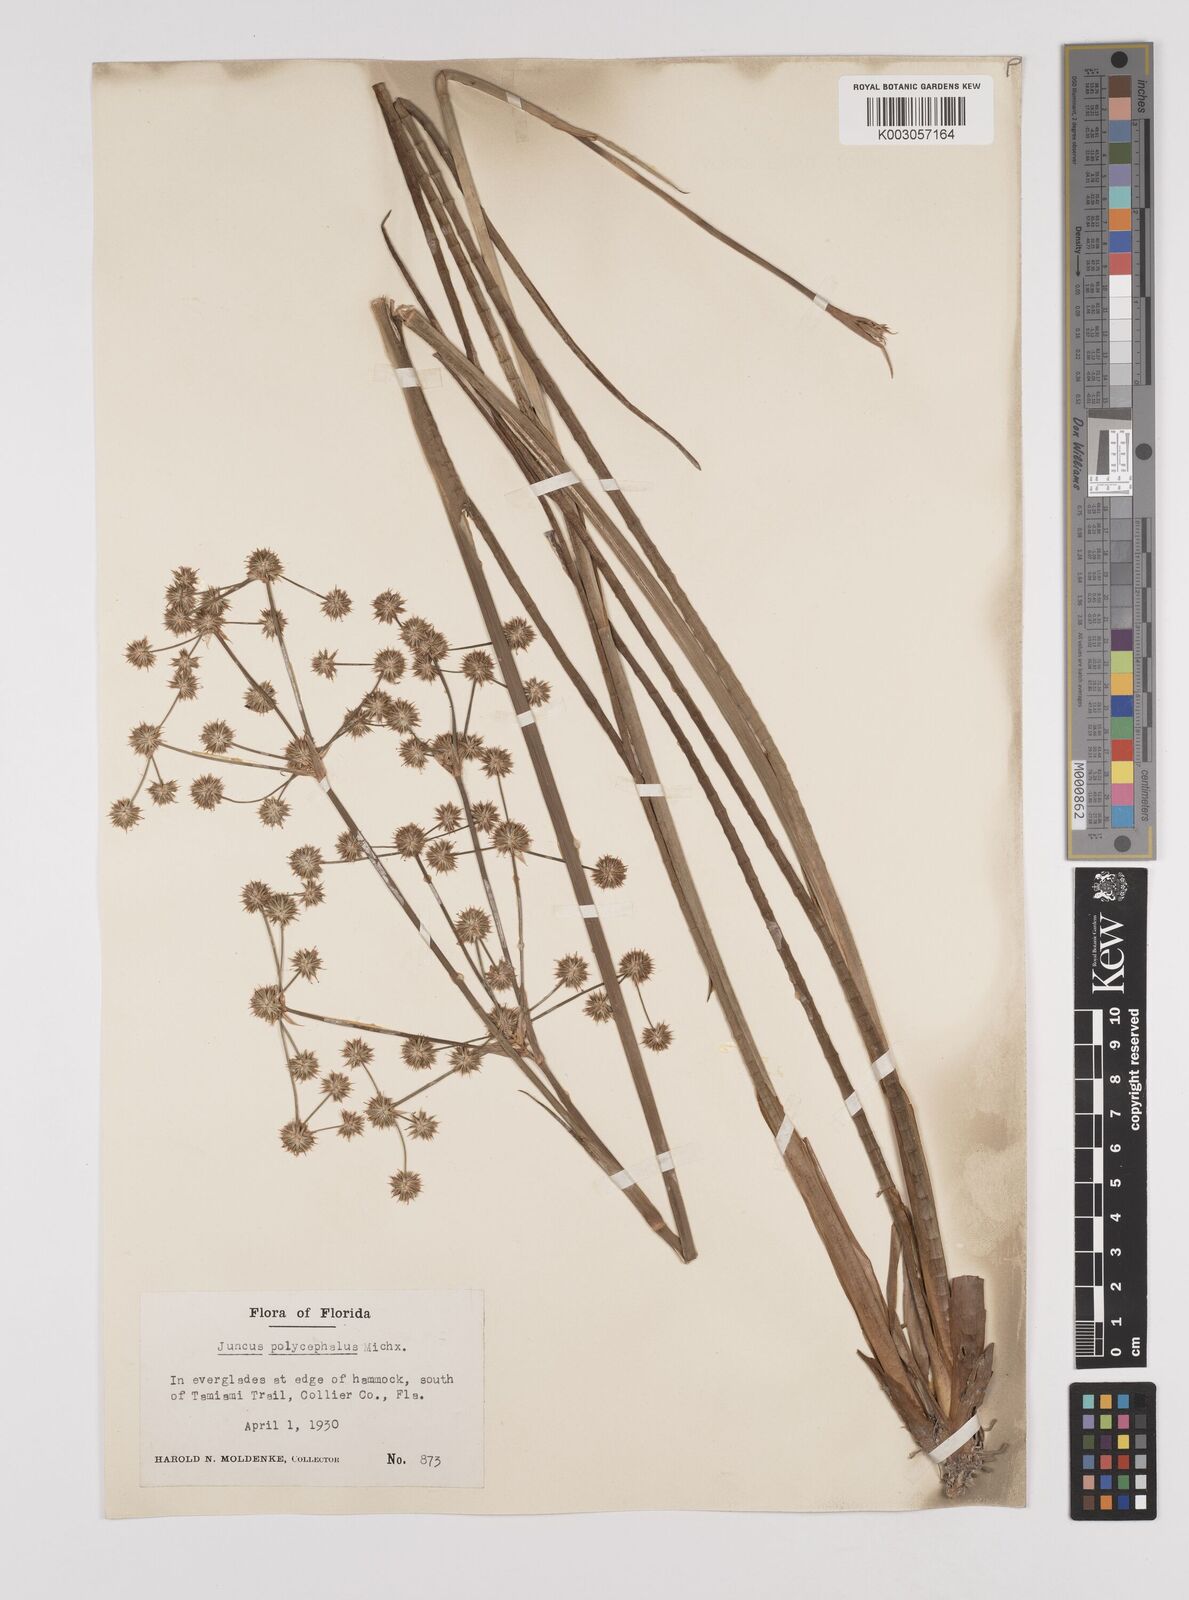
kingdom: Plantae
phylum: Tracheophyta
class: Liliopsida
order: Poales
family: Juncaceae
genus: Juncus
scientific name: Juncus articulatus
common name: Jointed rush
